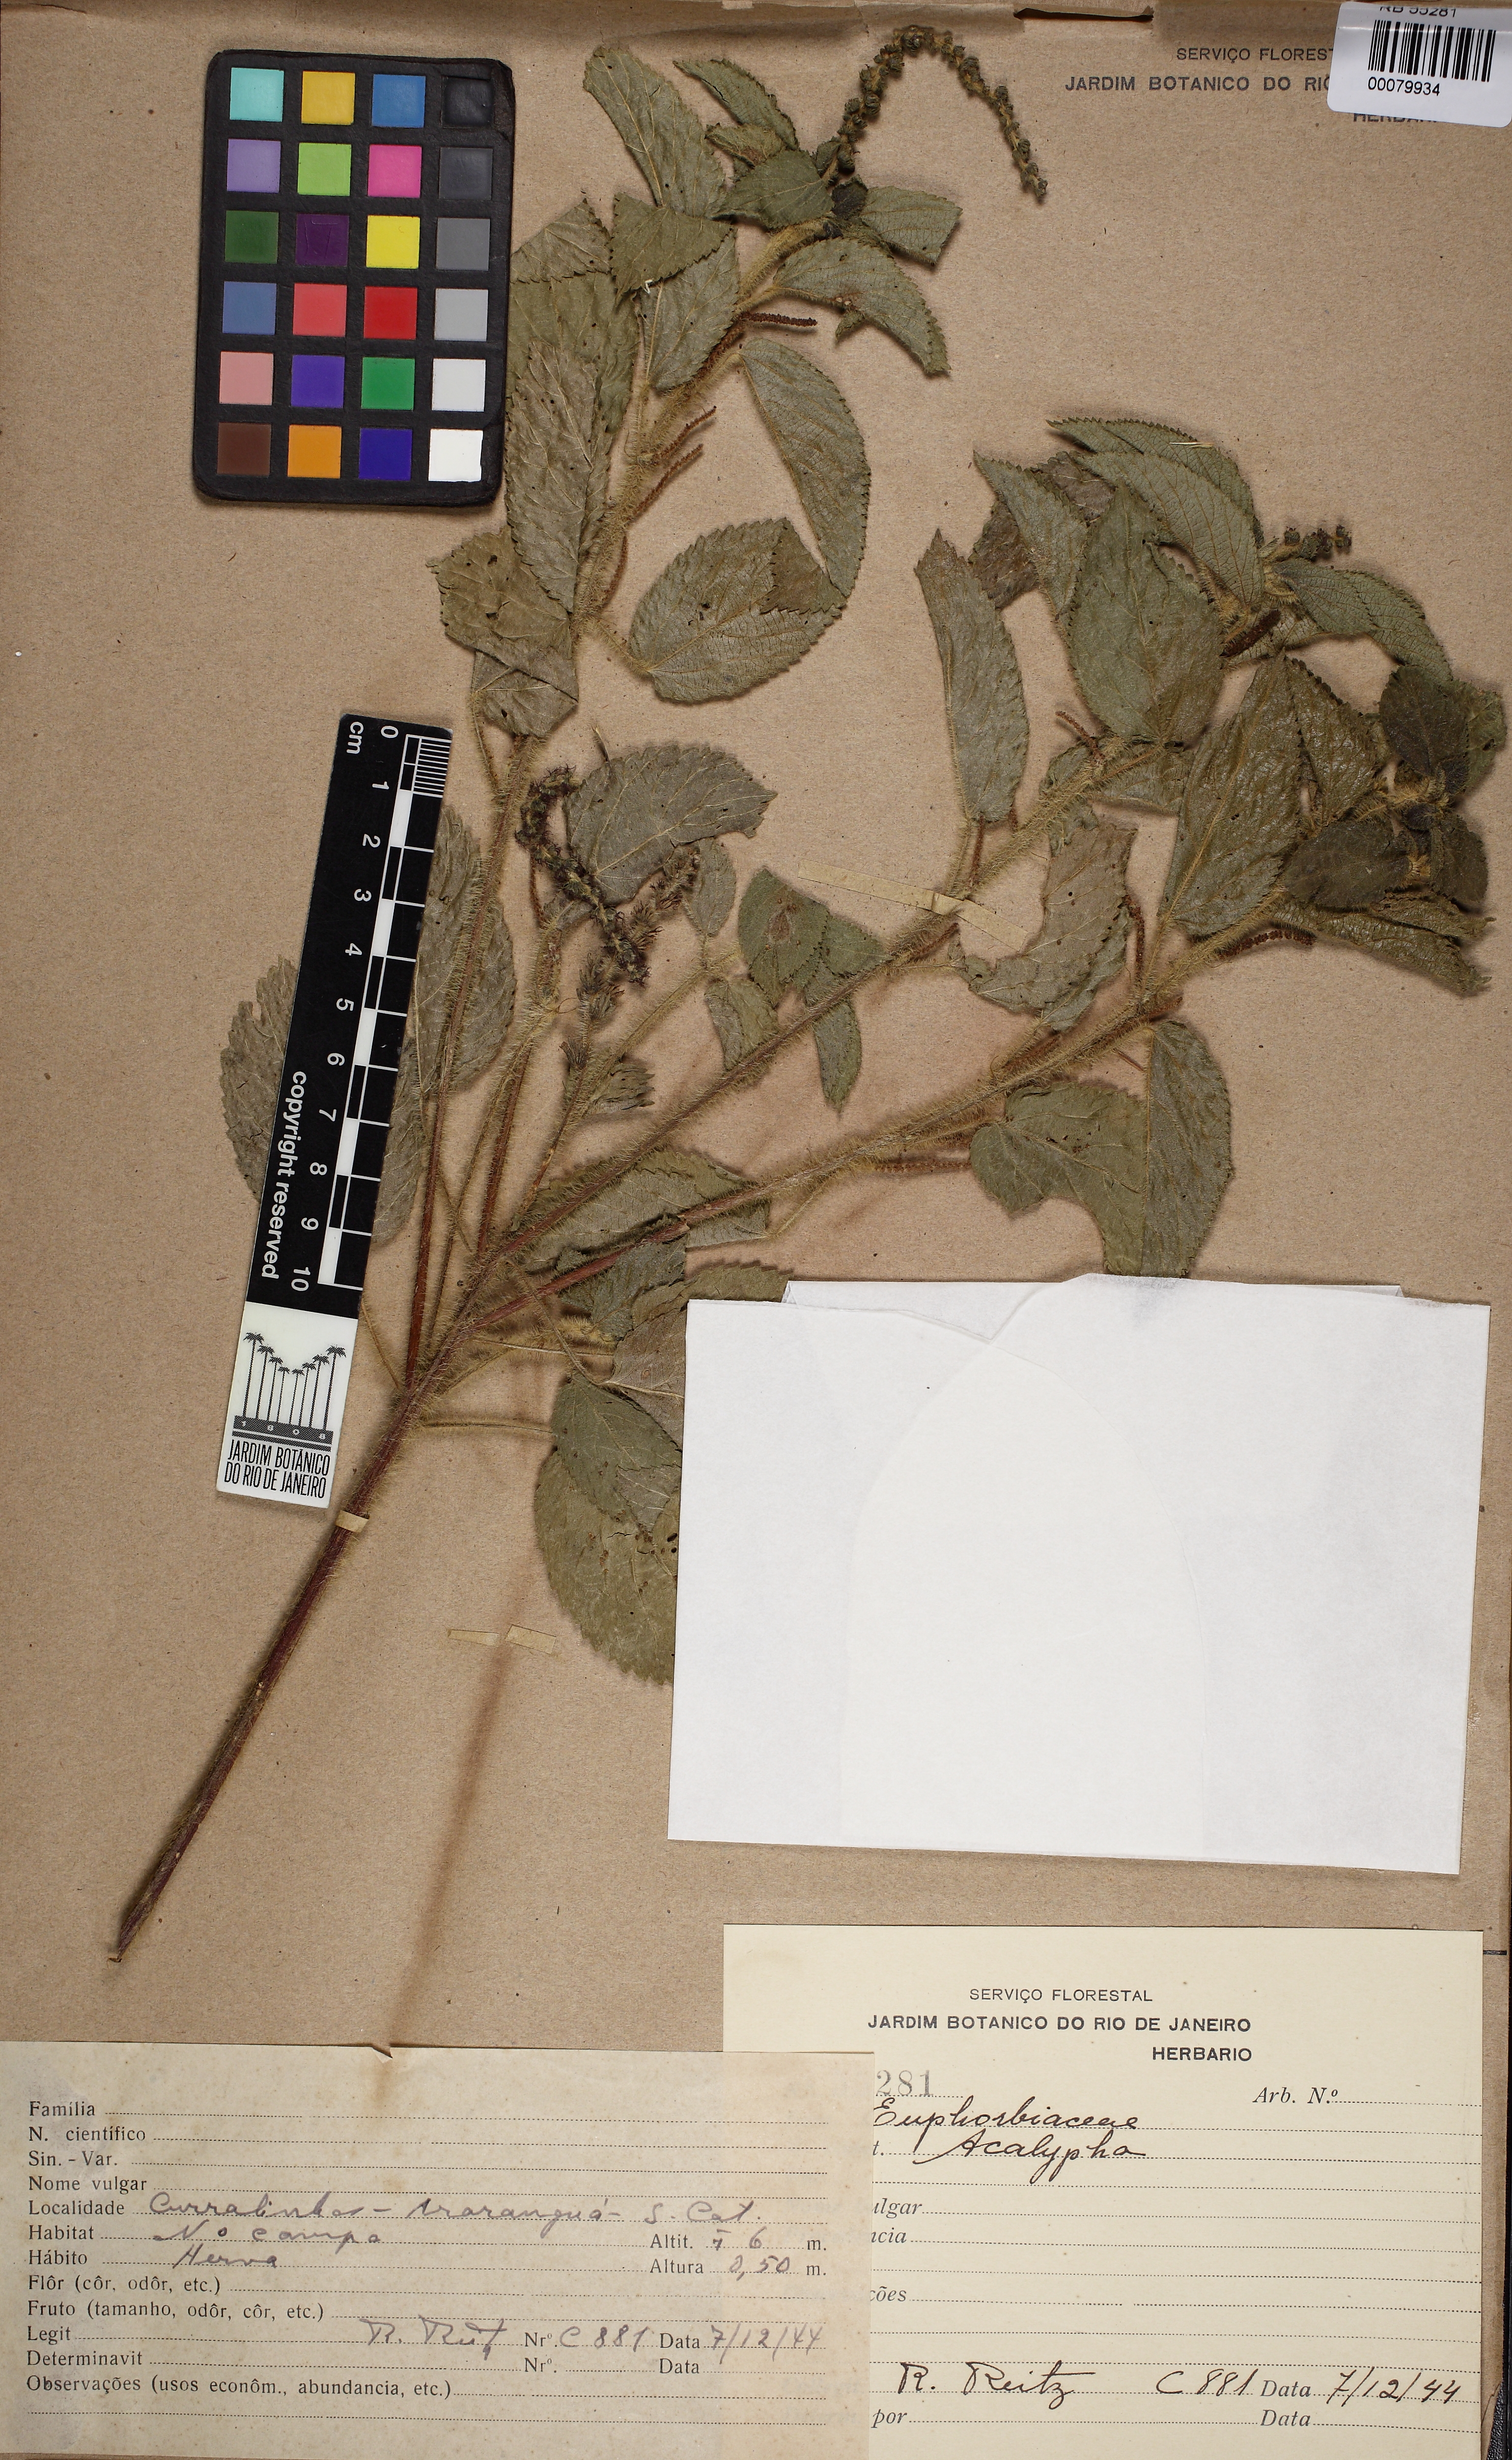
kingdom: Plantae
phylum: Tracheophyta
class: Magnoliopsida
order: Malpighiales
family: Euphorbiaceae
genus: Acalypha
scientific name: Acalypha communis
